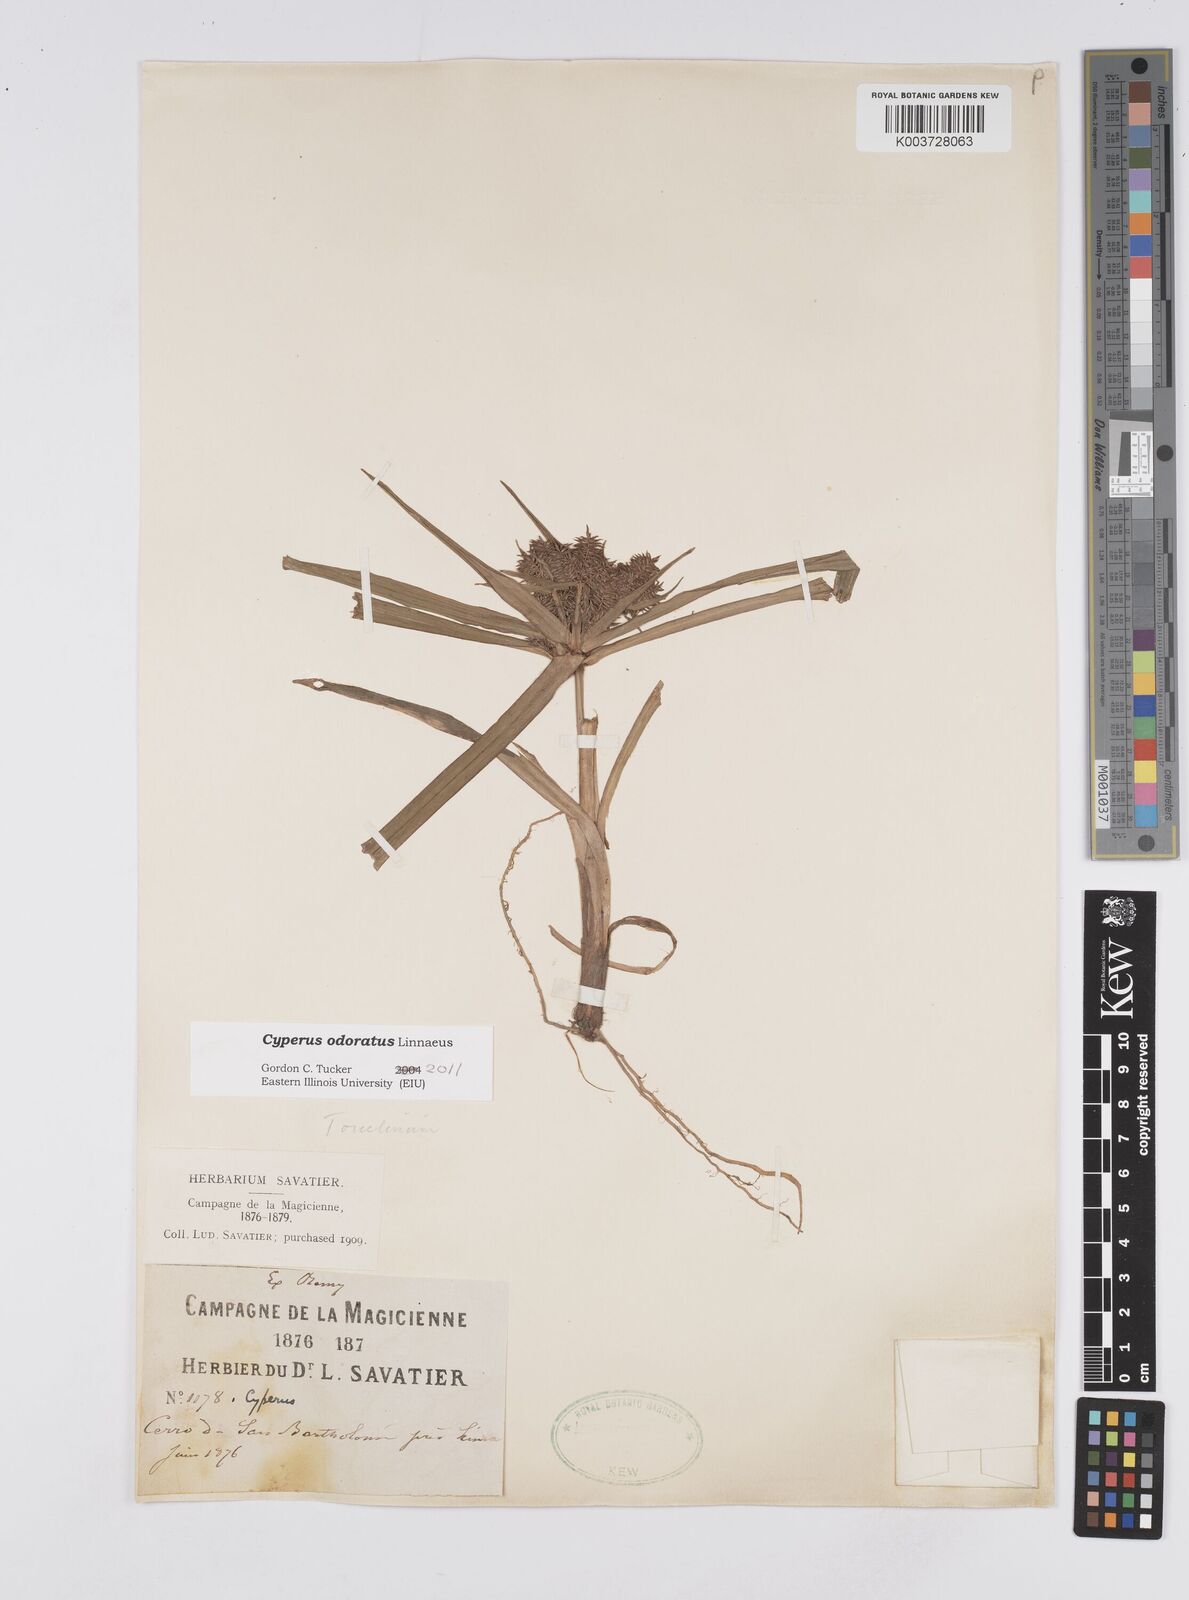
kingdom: Plantae
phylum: Tracheophyta
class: Liliopsida
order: Poales
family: Cyperaceae
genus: Cyperus
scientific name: Cyperus odoratus
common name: Fragrant flatsedge
